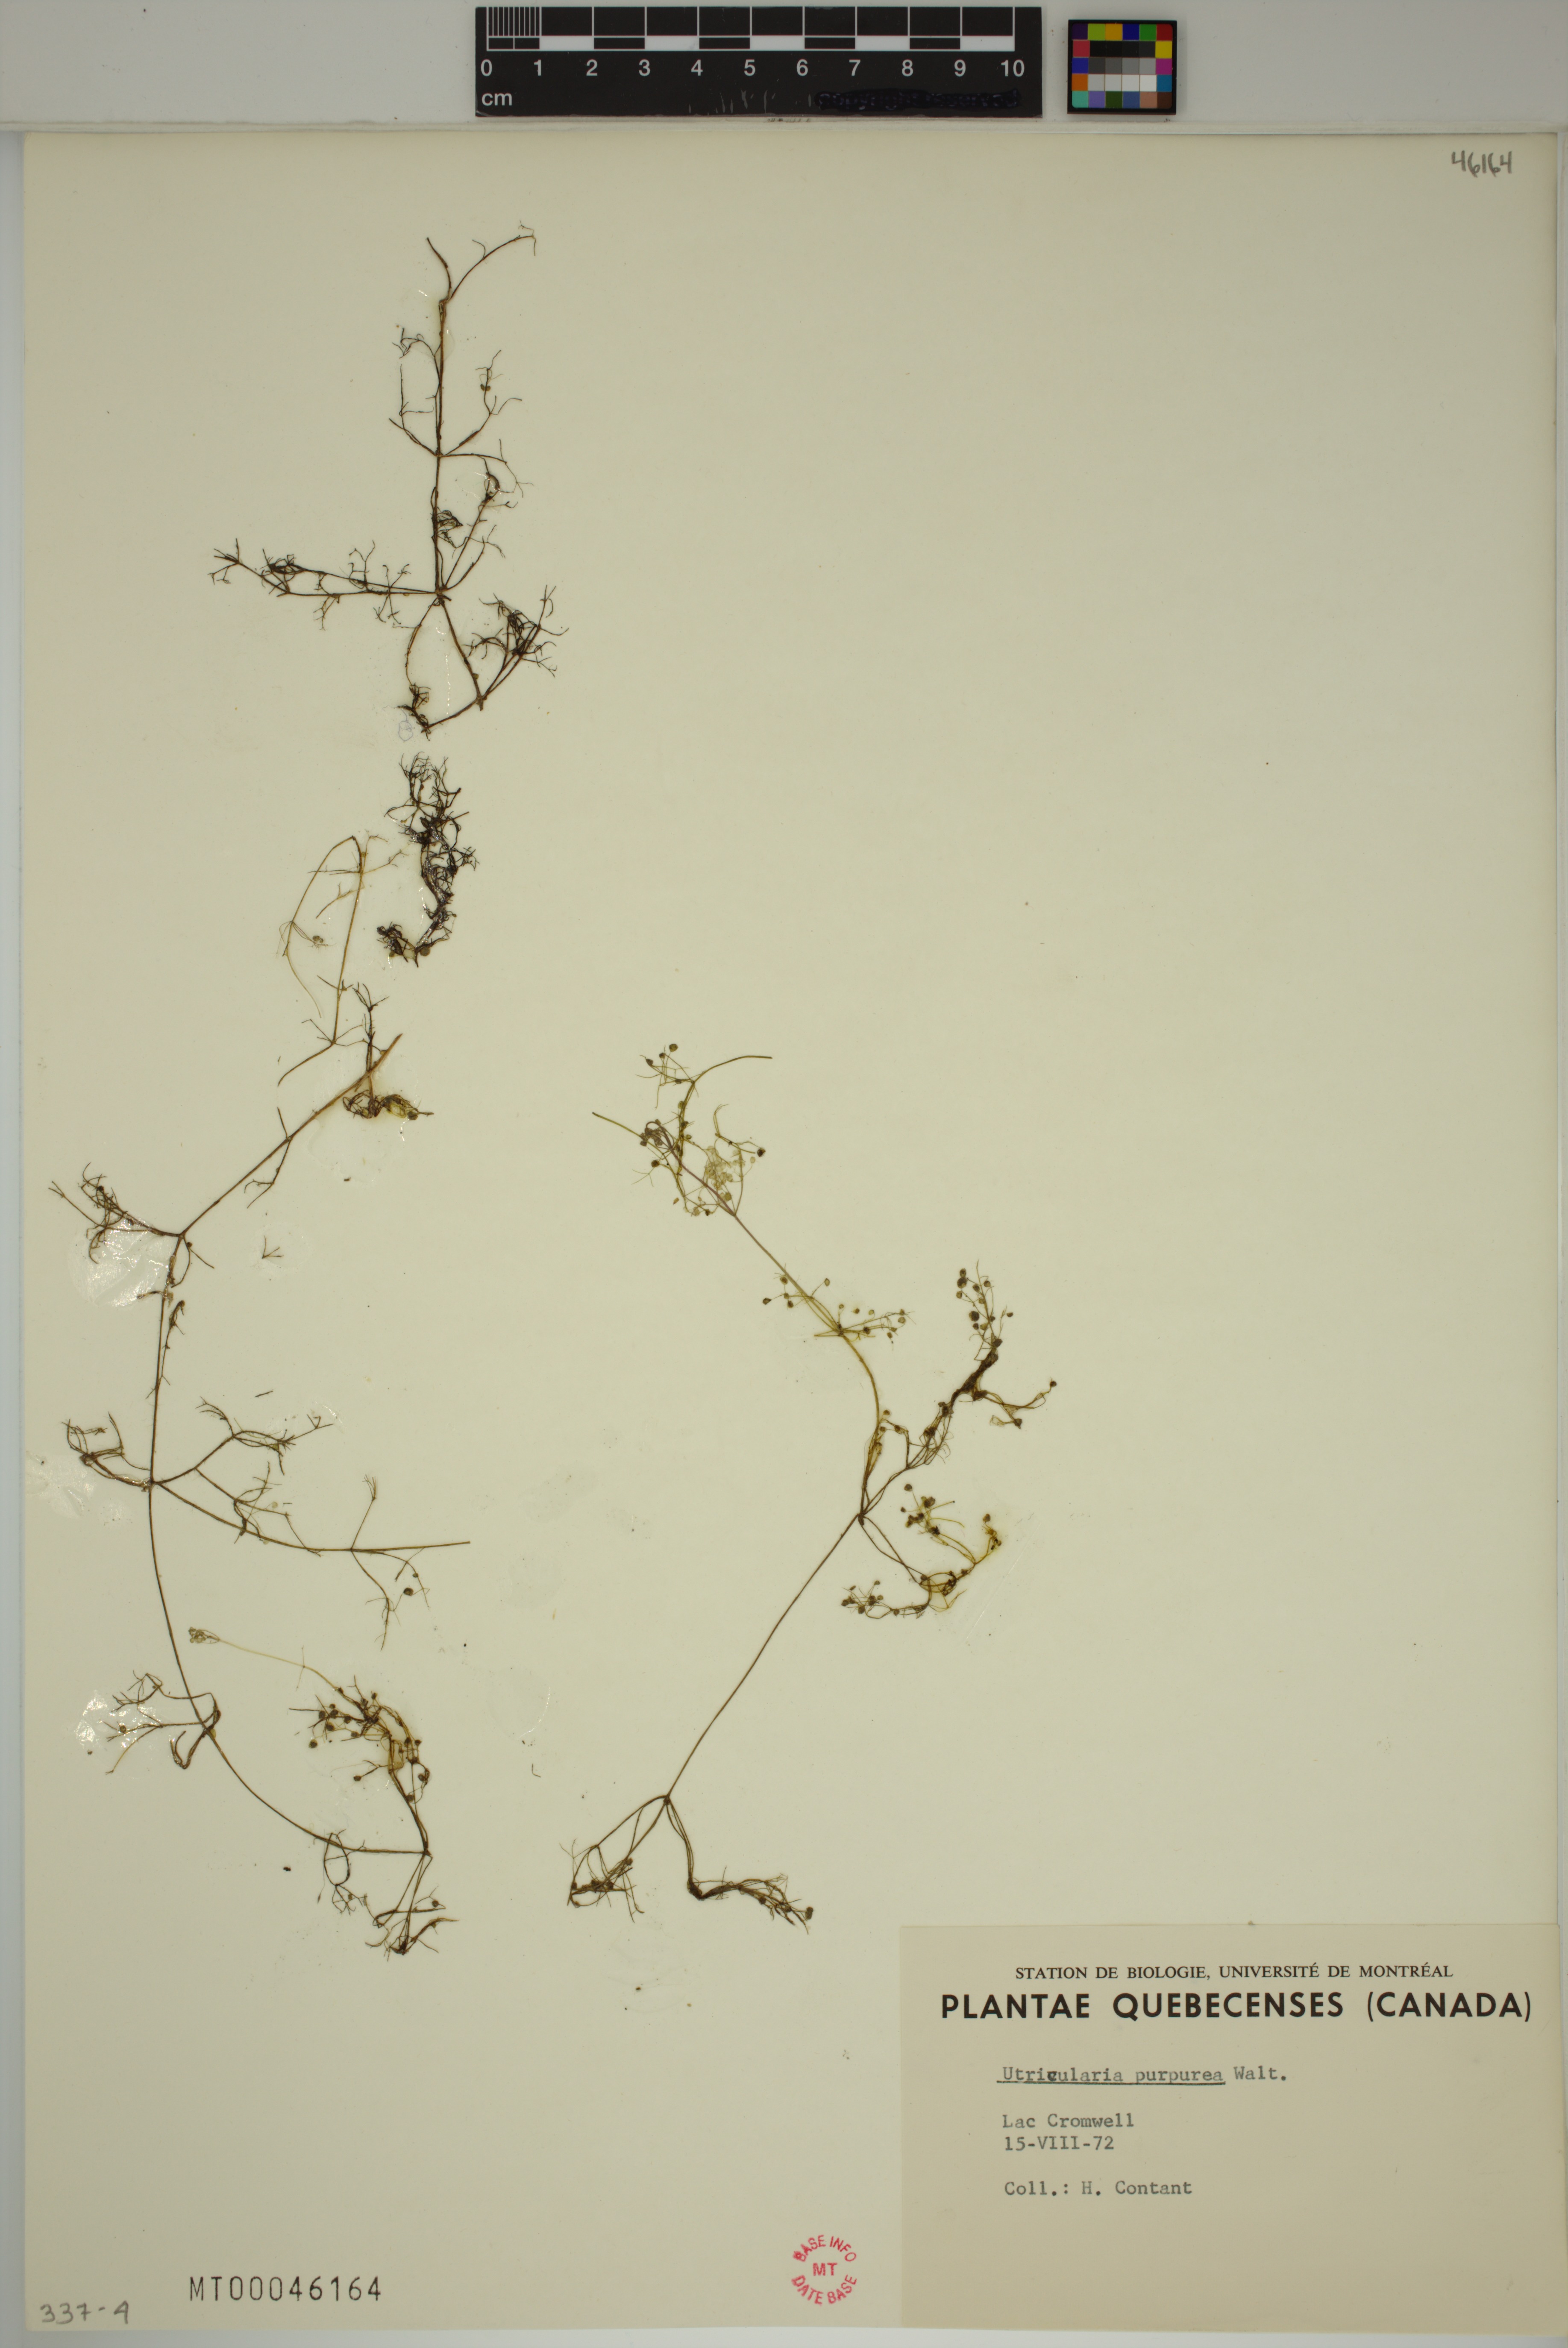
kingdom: Plantae
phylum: Tracheophyta
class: Magnoliopsida
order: Lamiales
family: Lentibulariaceae
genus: Utricularia
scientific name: Utricularia purpurea
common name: Eastern purple bladderwort
